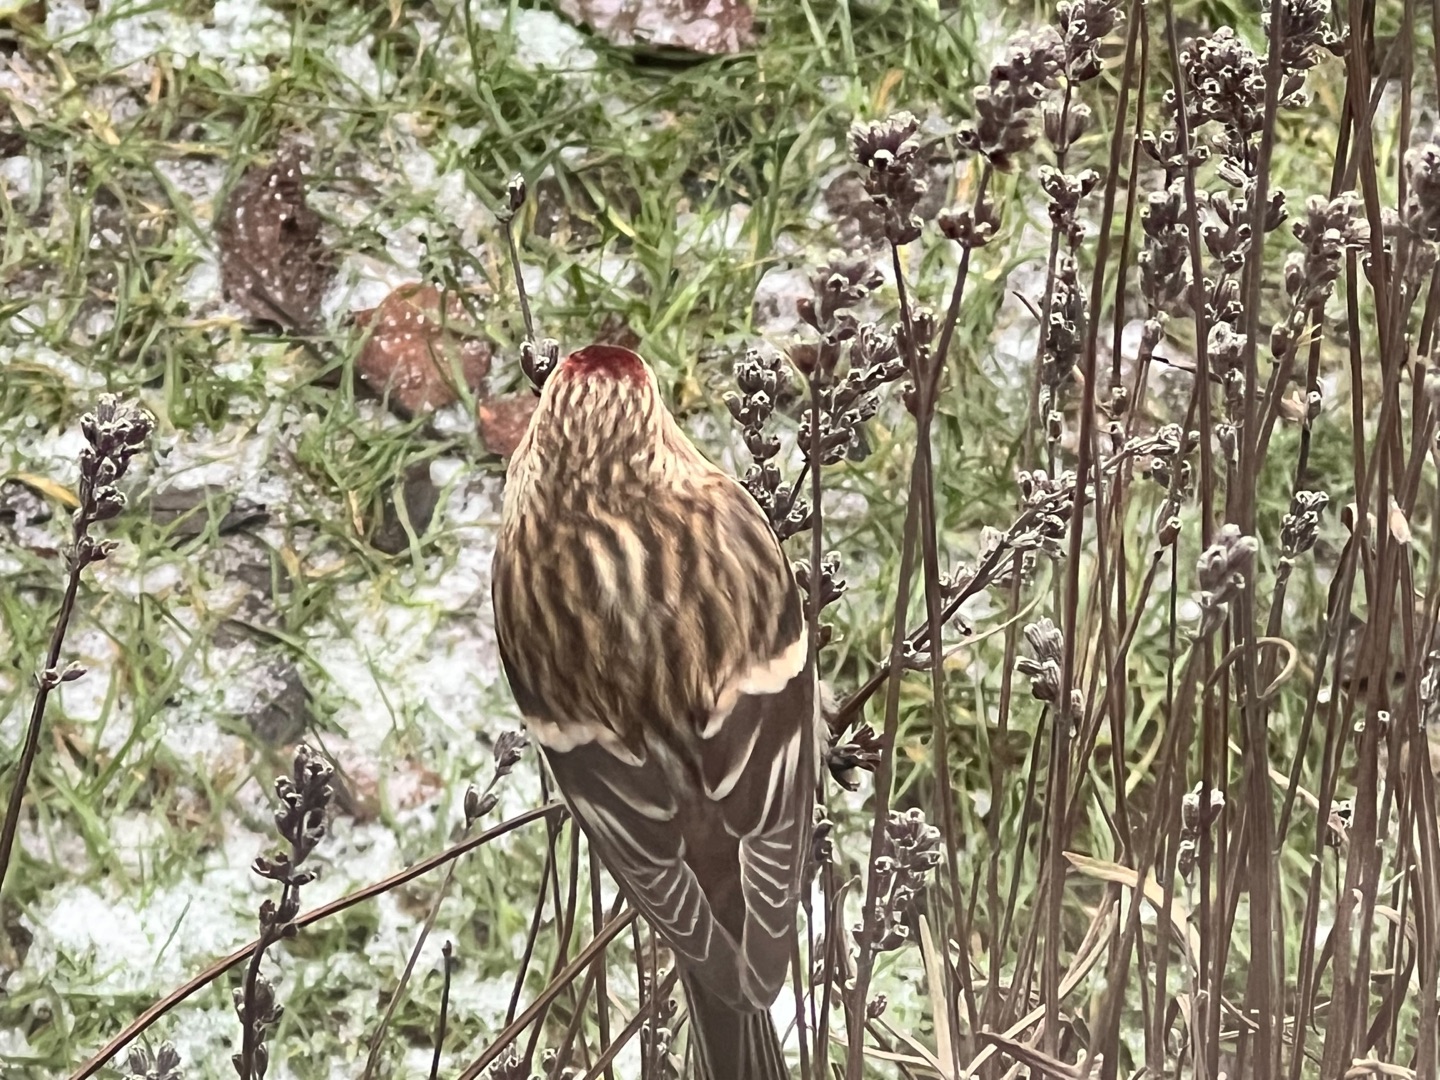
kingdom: Animalia
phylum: Chordata
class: Aves
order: Passeriformes
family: Fringillidae
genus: Acanthis
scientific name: Acanthis flammea
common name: Nordlig gråsisken
